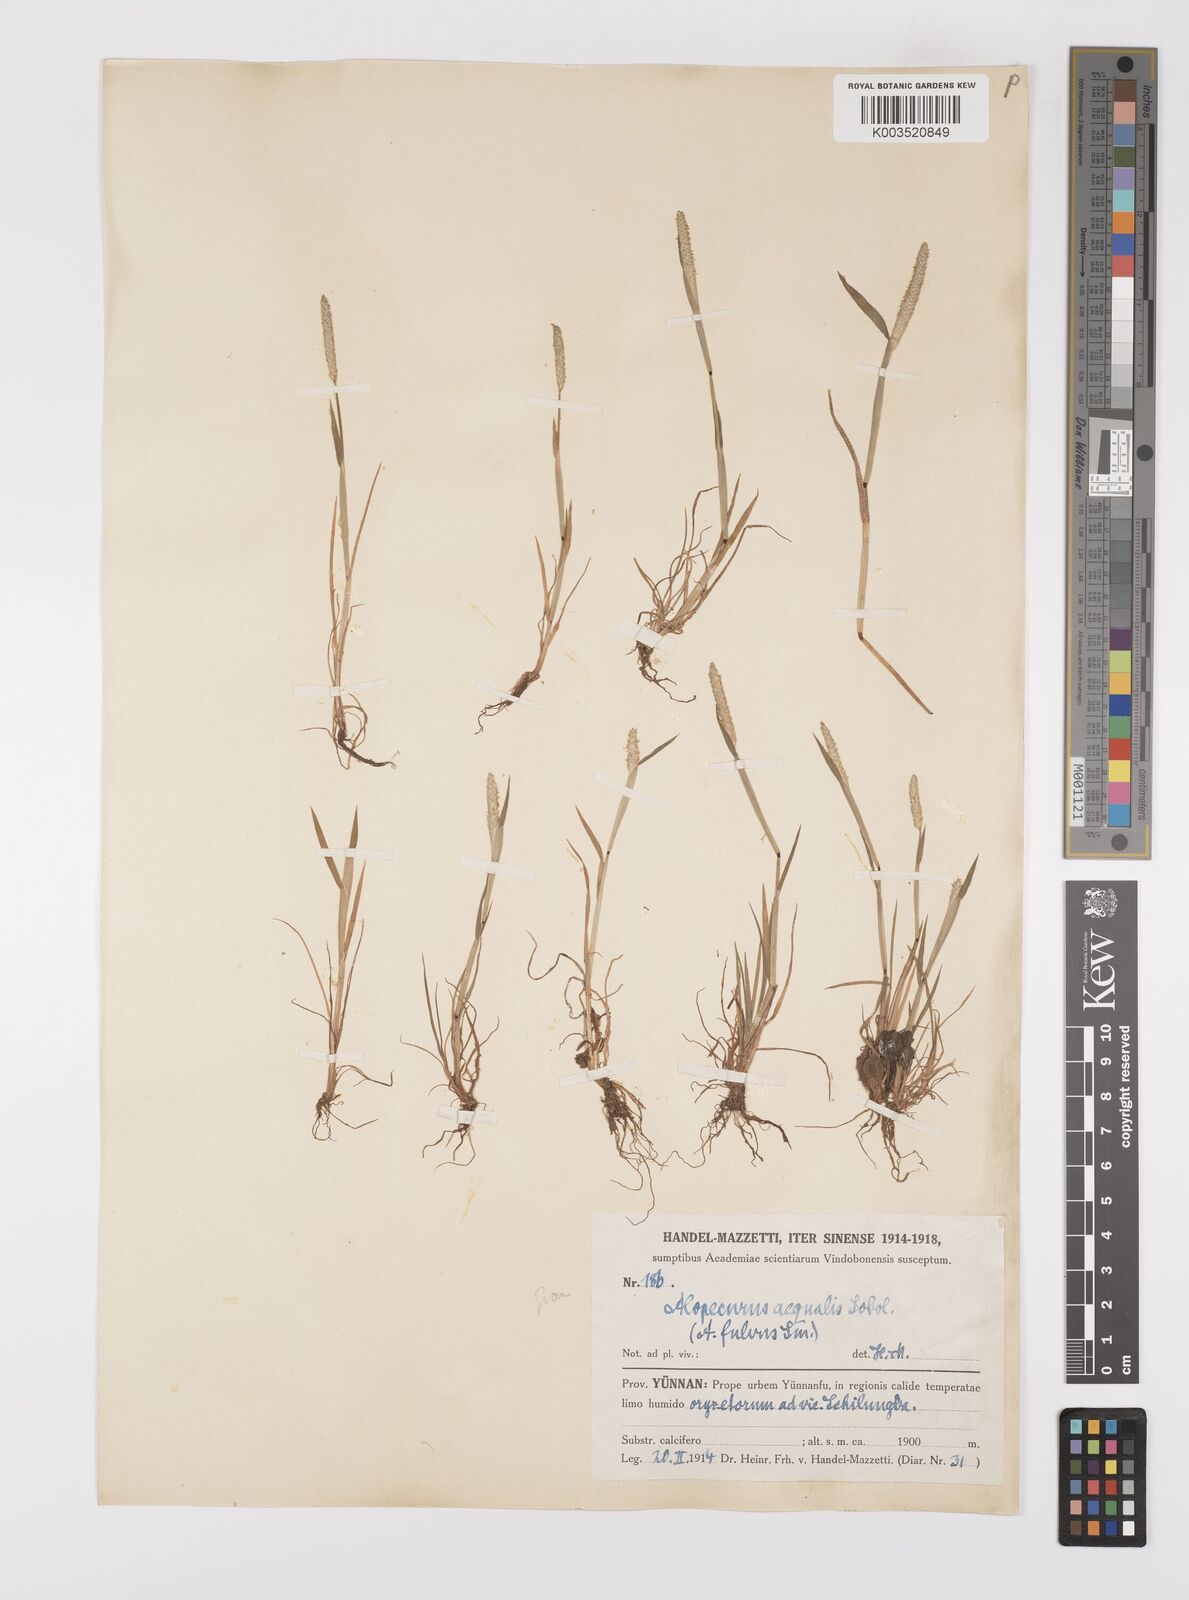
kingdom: Plantae
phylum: Tracheophyta
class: Liliopsida
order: Poales
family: Poaceae
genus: Alopecurus
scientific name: Alopecurus aequalis
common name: Orange foxtail
